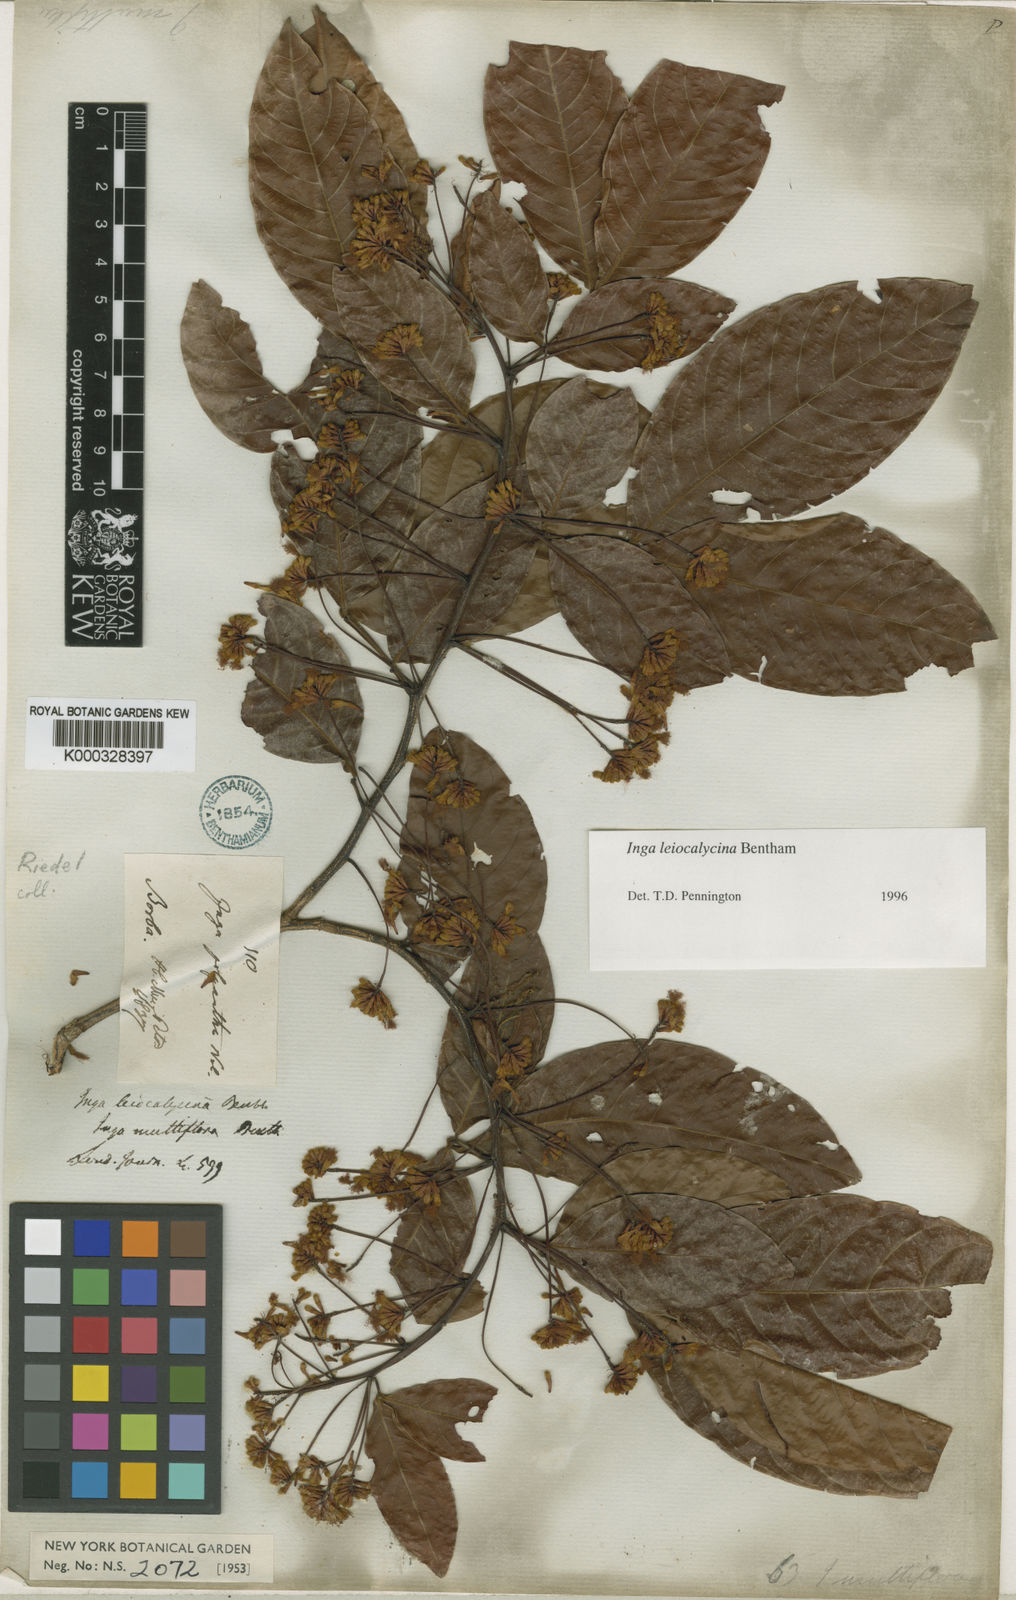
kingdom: Plantae
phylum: Tracheophyta
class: Magnoliopsida
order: Fabales
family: Fabaceae
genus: Inga
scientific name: Inga laevigata
